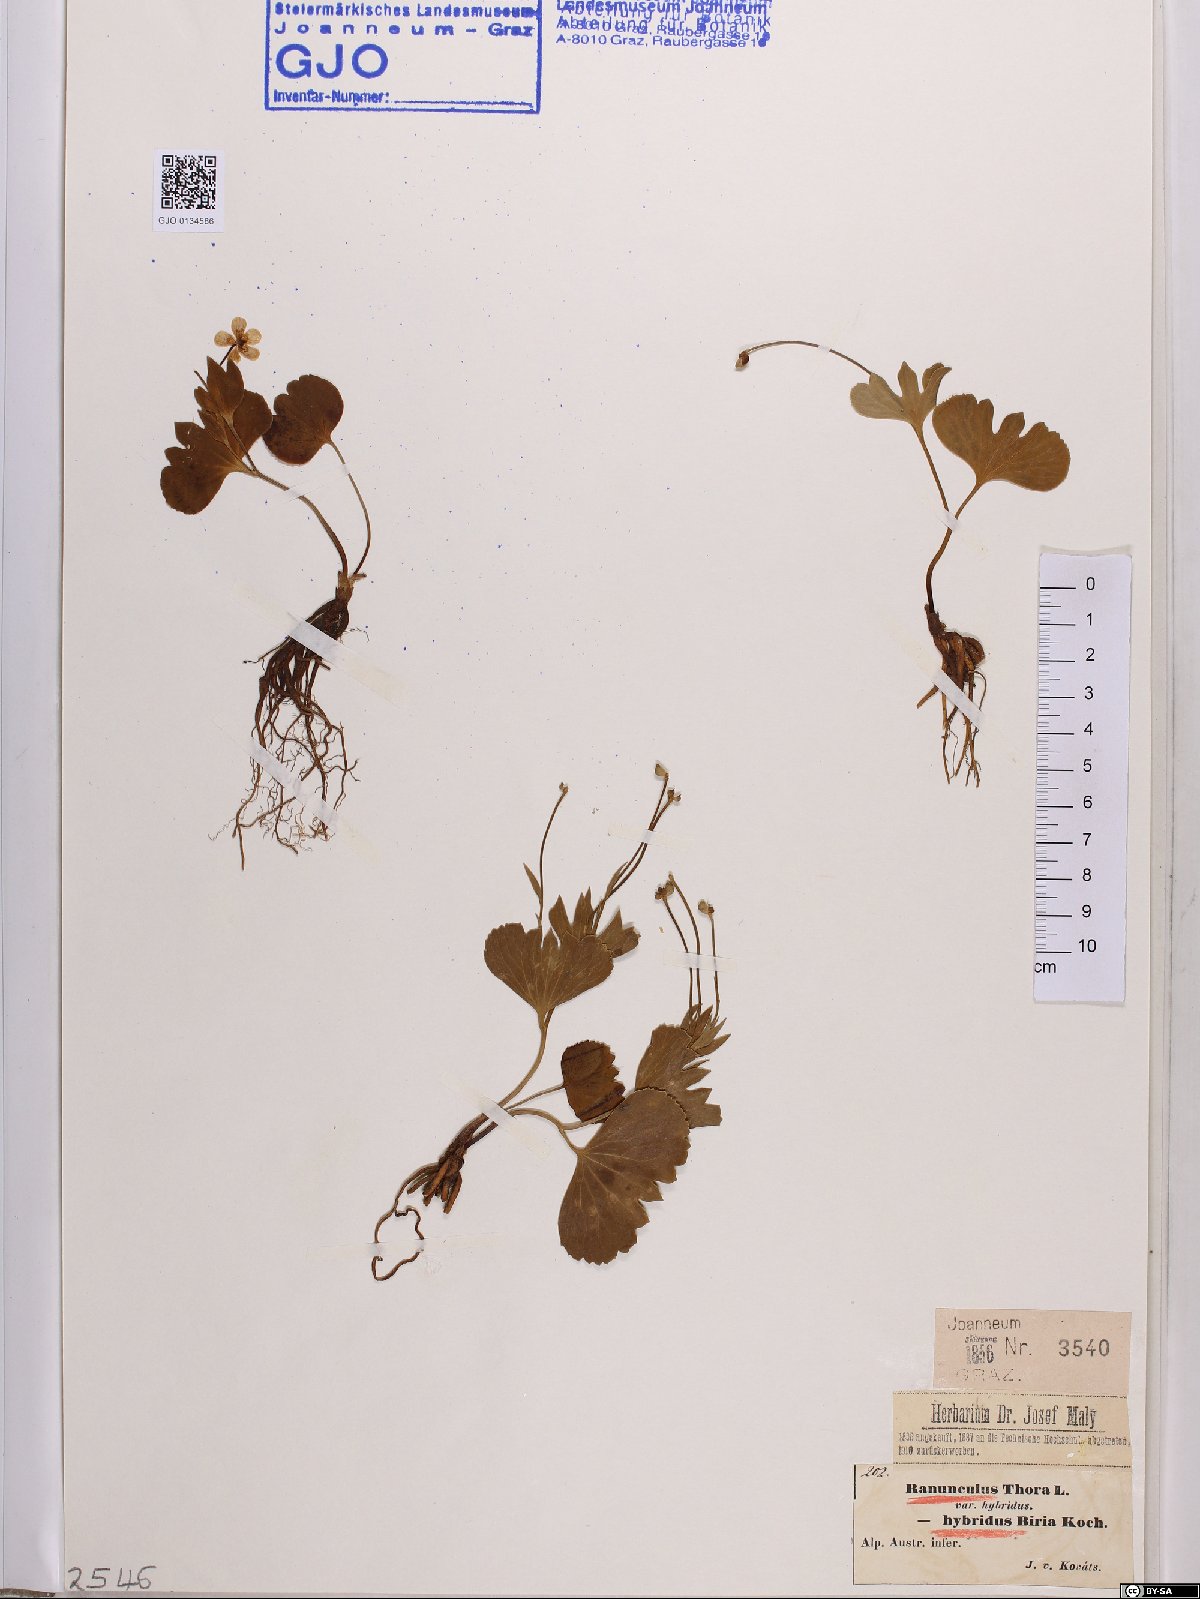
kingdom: Plantae
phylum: Tracheophyta
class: Magnoliopsida
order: Ranunculales
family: Ranunculaceae
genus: Ranunculus
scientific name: Ranunculus hybridus
